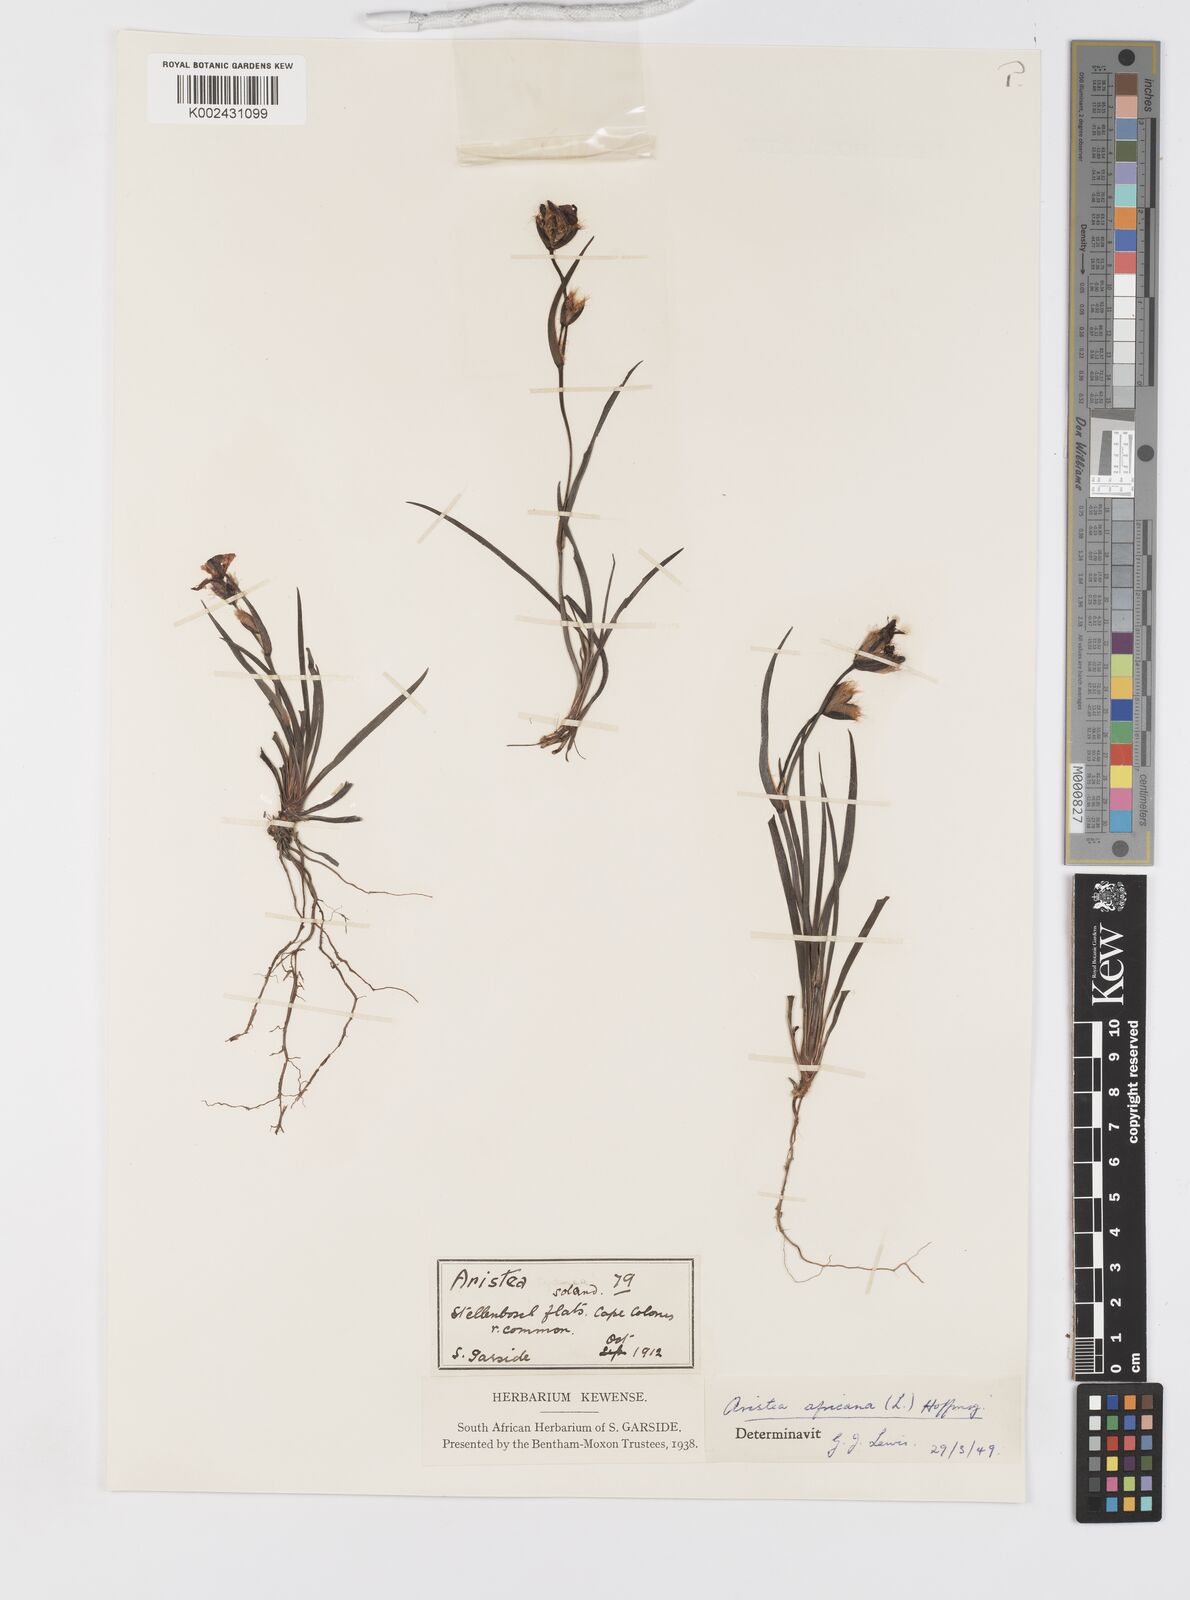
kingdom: Plantae
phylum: Tracheophyta
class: Liliopsida
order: Asparagales
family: Iridaceae
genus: Aristea
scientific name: Aristea africana
